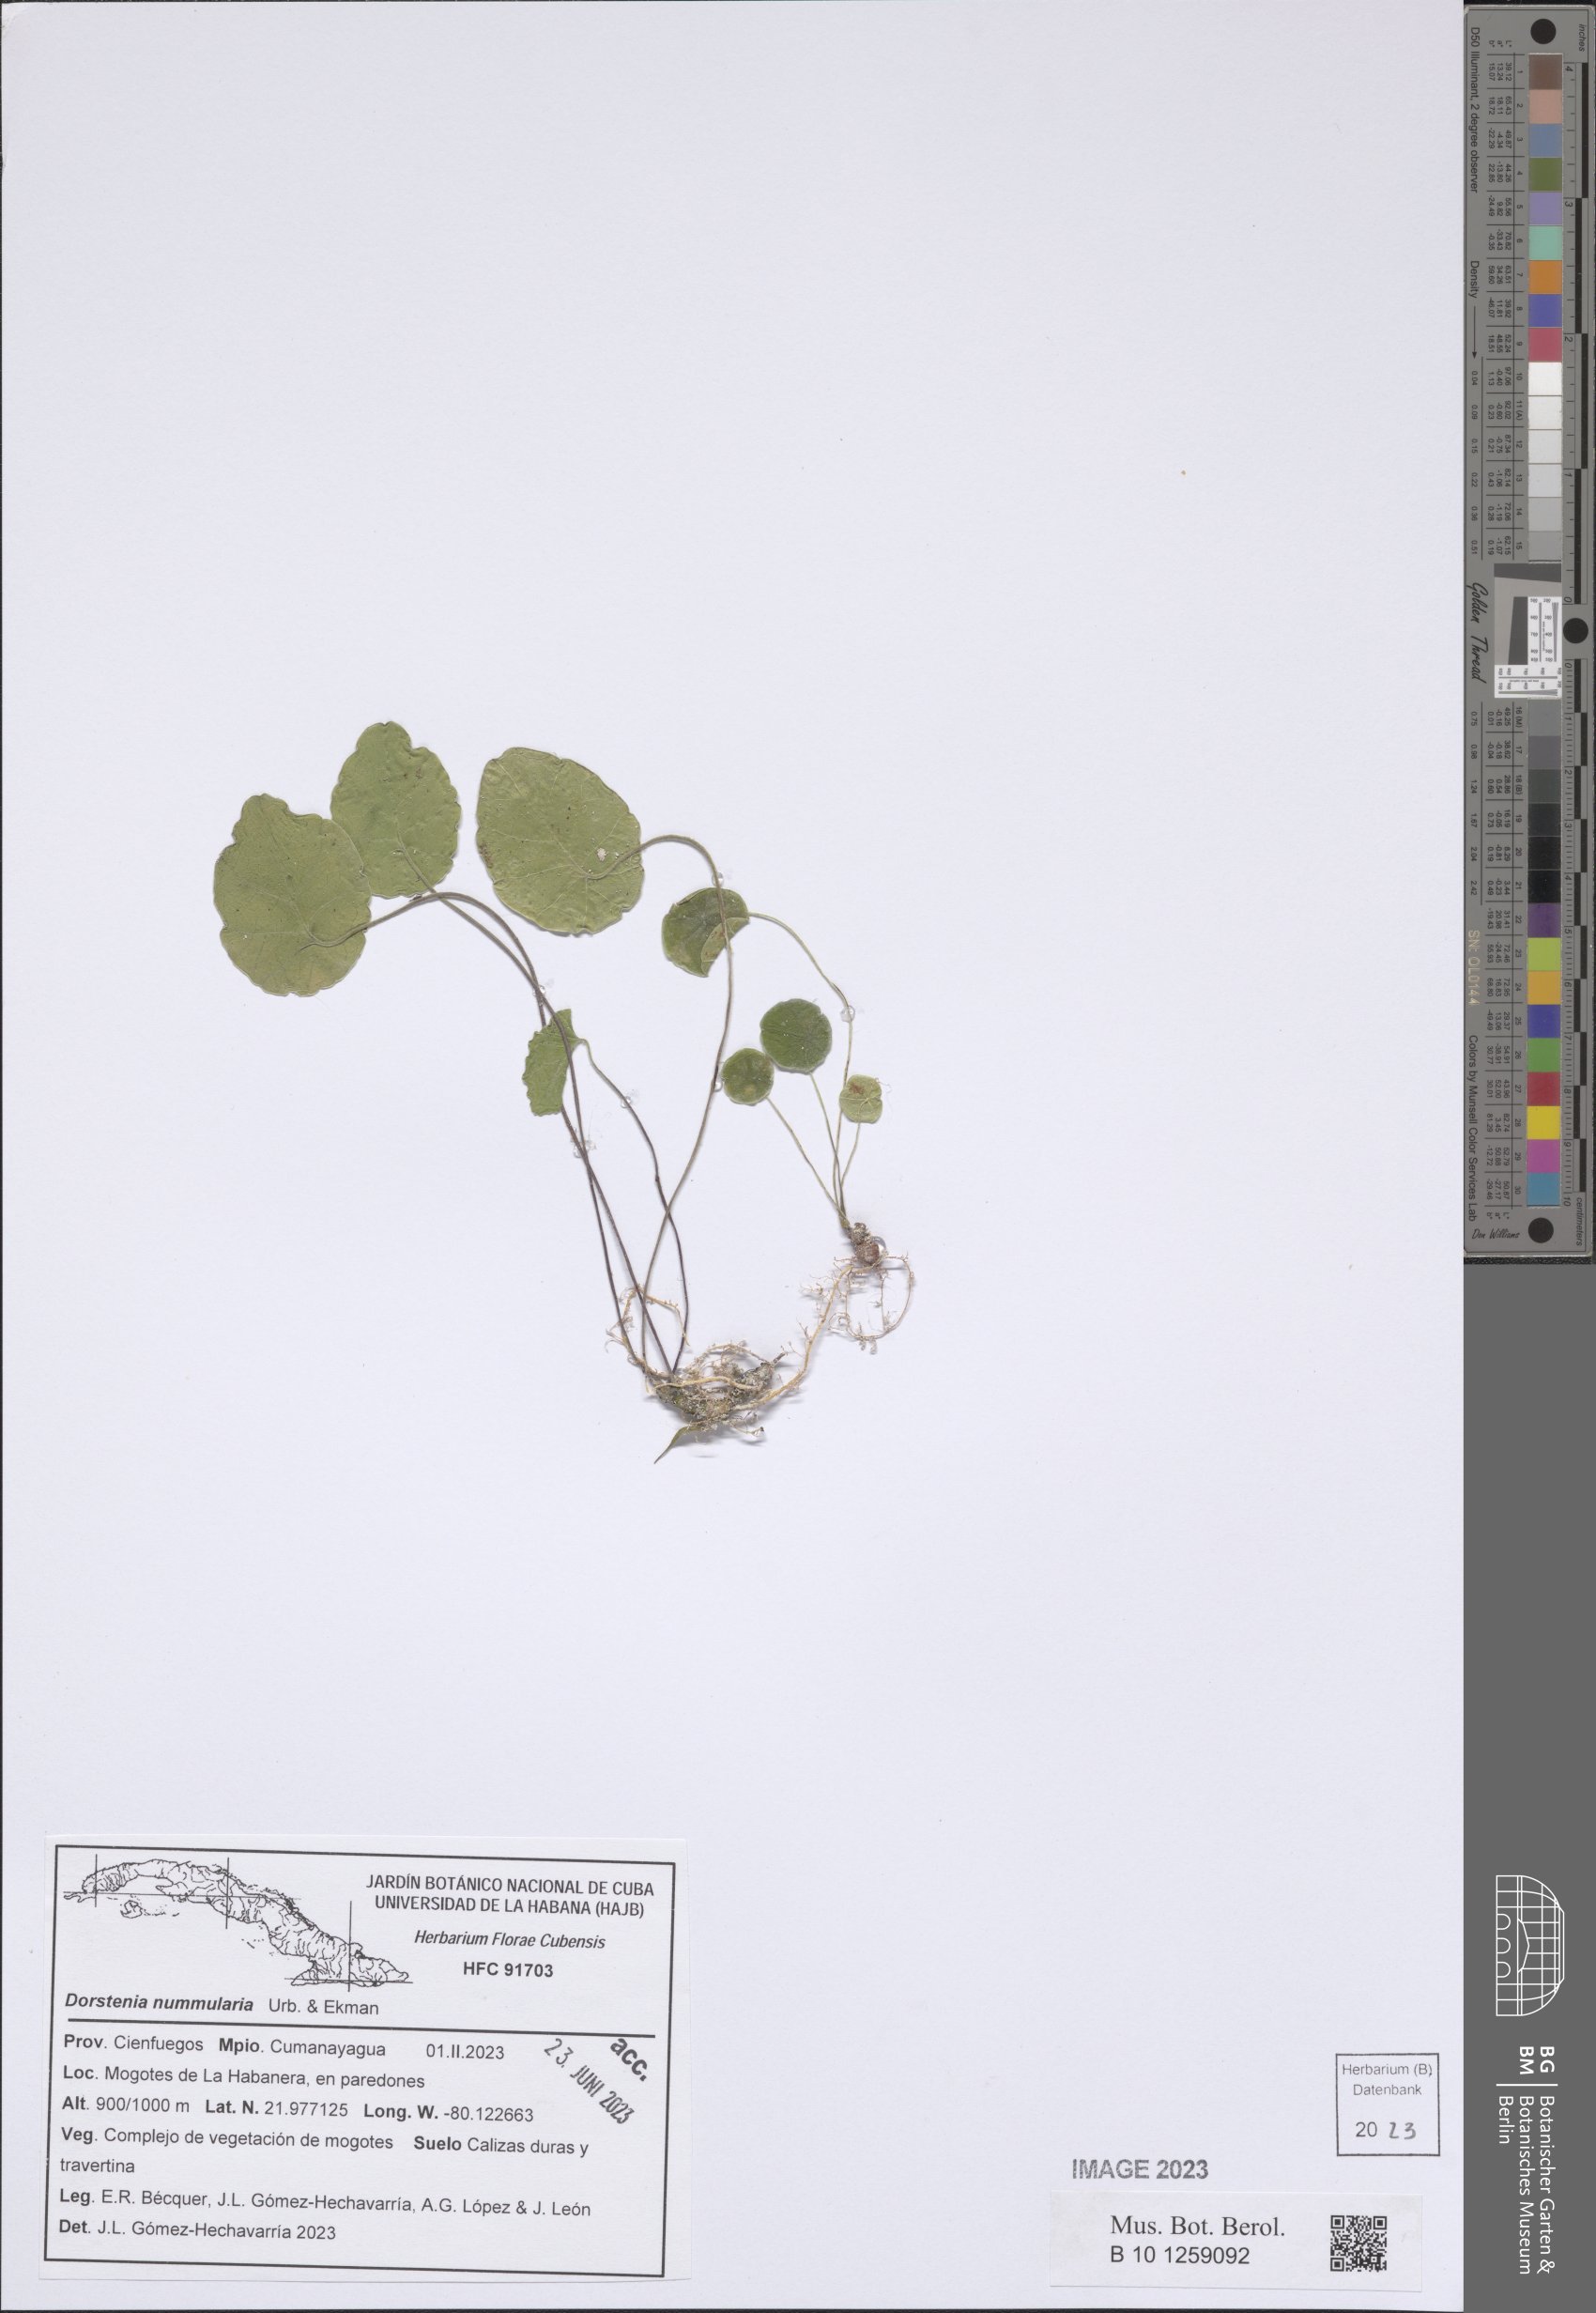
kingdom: Plantae
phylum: Tracheophyta
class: Magnoliopsida
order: Rosales
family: Moraceae
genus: Dorstenia
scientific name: Dorstenia nummularia
